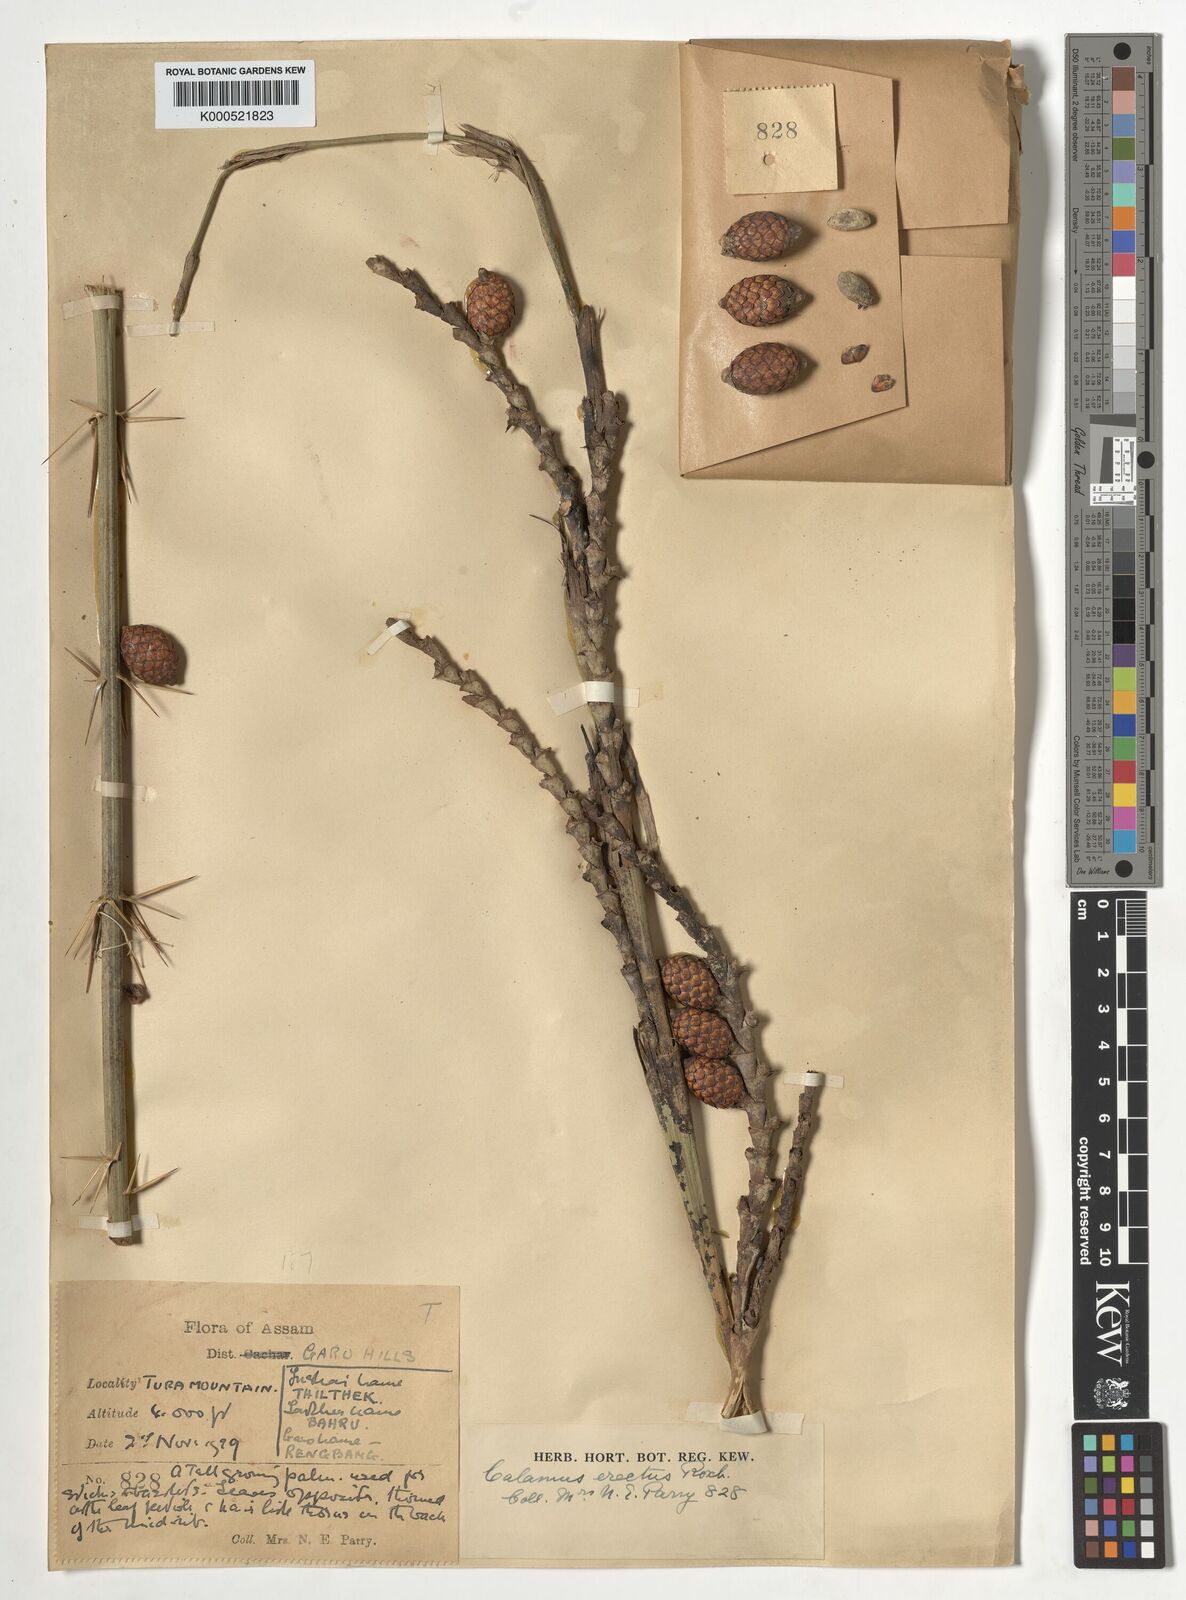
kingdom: Plantae
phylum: Tracheophyta
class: Liliopsida
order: Arecales
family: Arecaceae
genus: Calamus
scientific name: Calamus erectus
